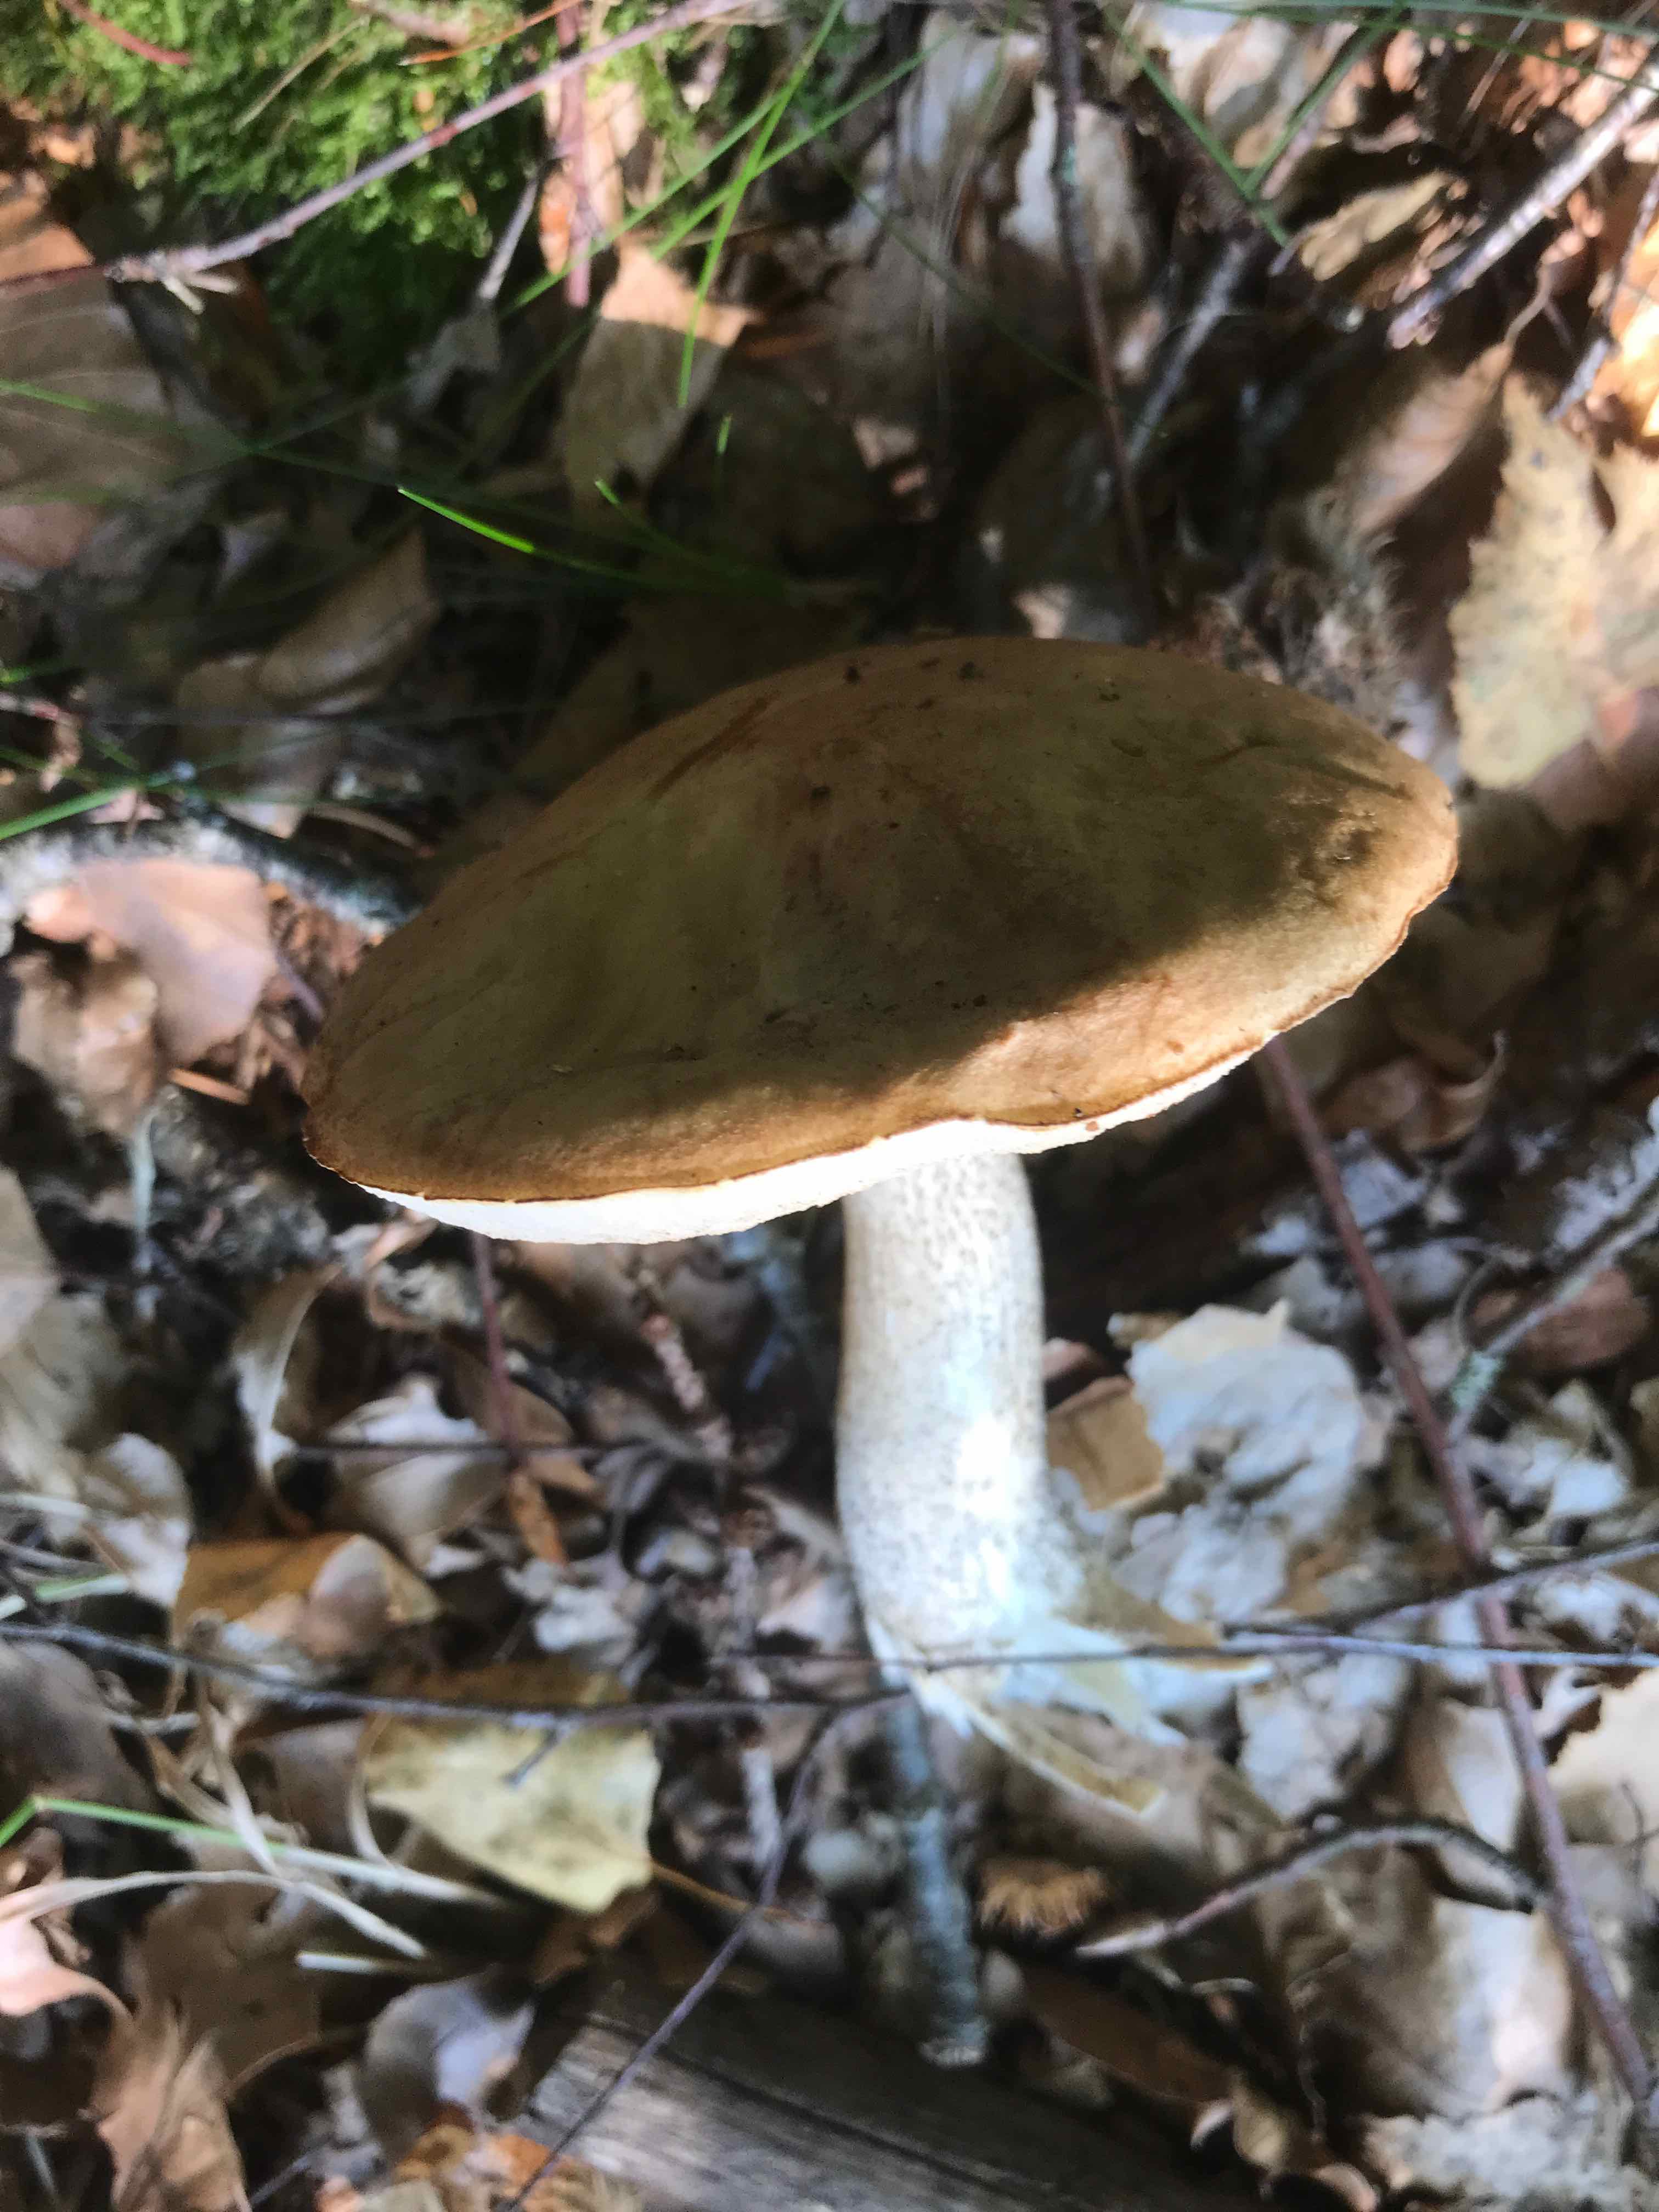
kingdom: Fungi
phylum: Basidiomycota
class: Agaricomycetes
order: Boletales
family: Boletaceae
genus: Leccinum
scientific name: Leccinum scabrum
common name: brun skælrørhat
